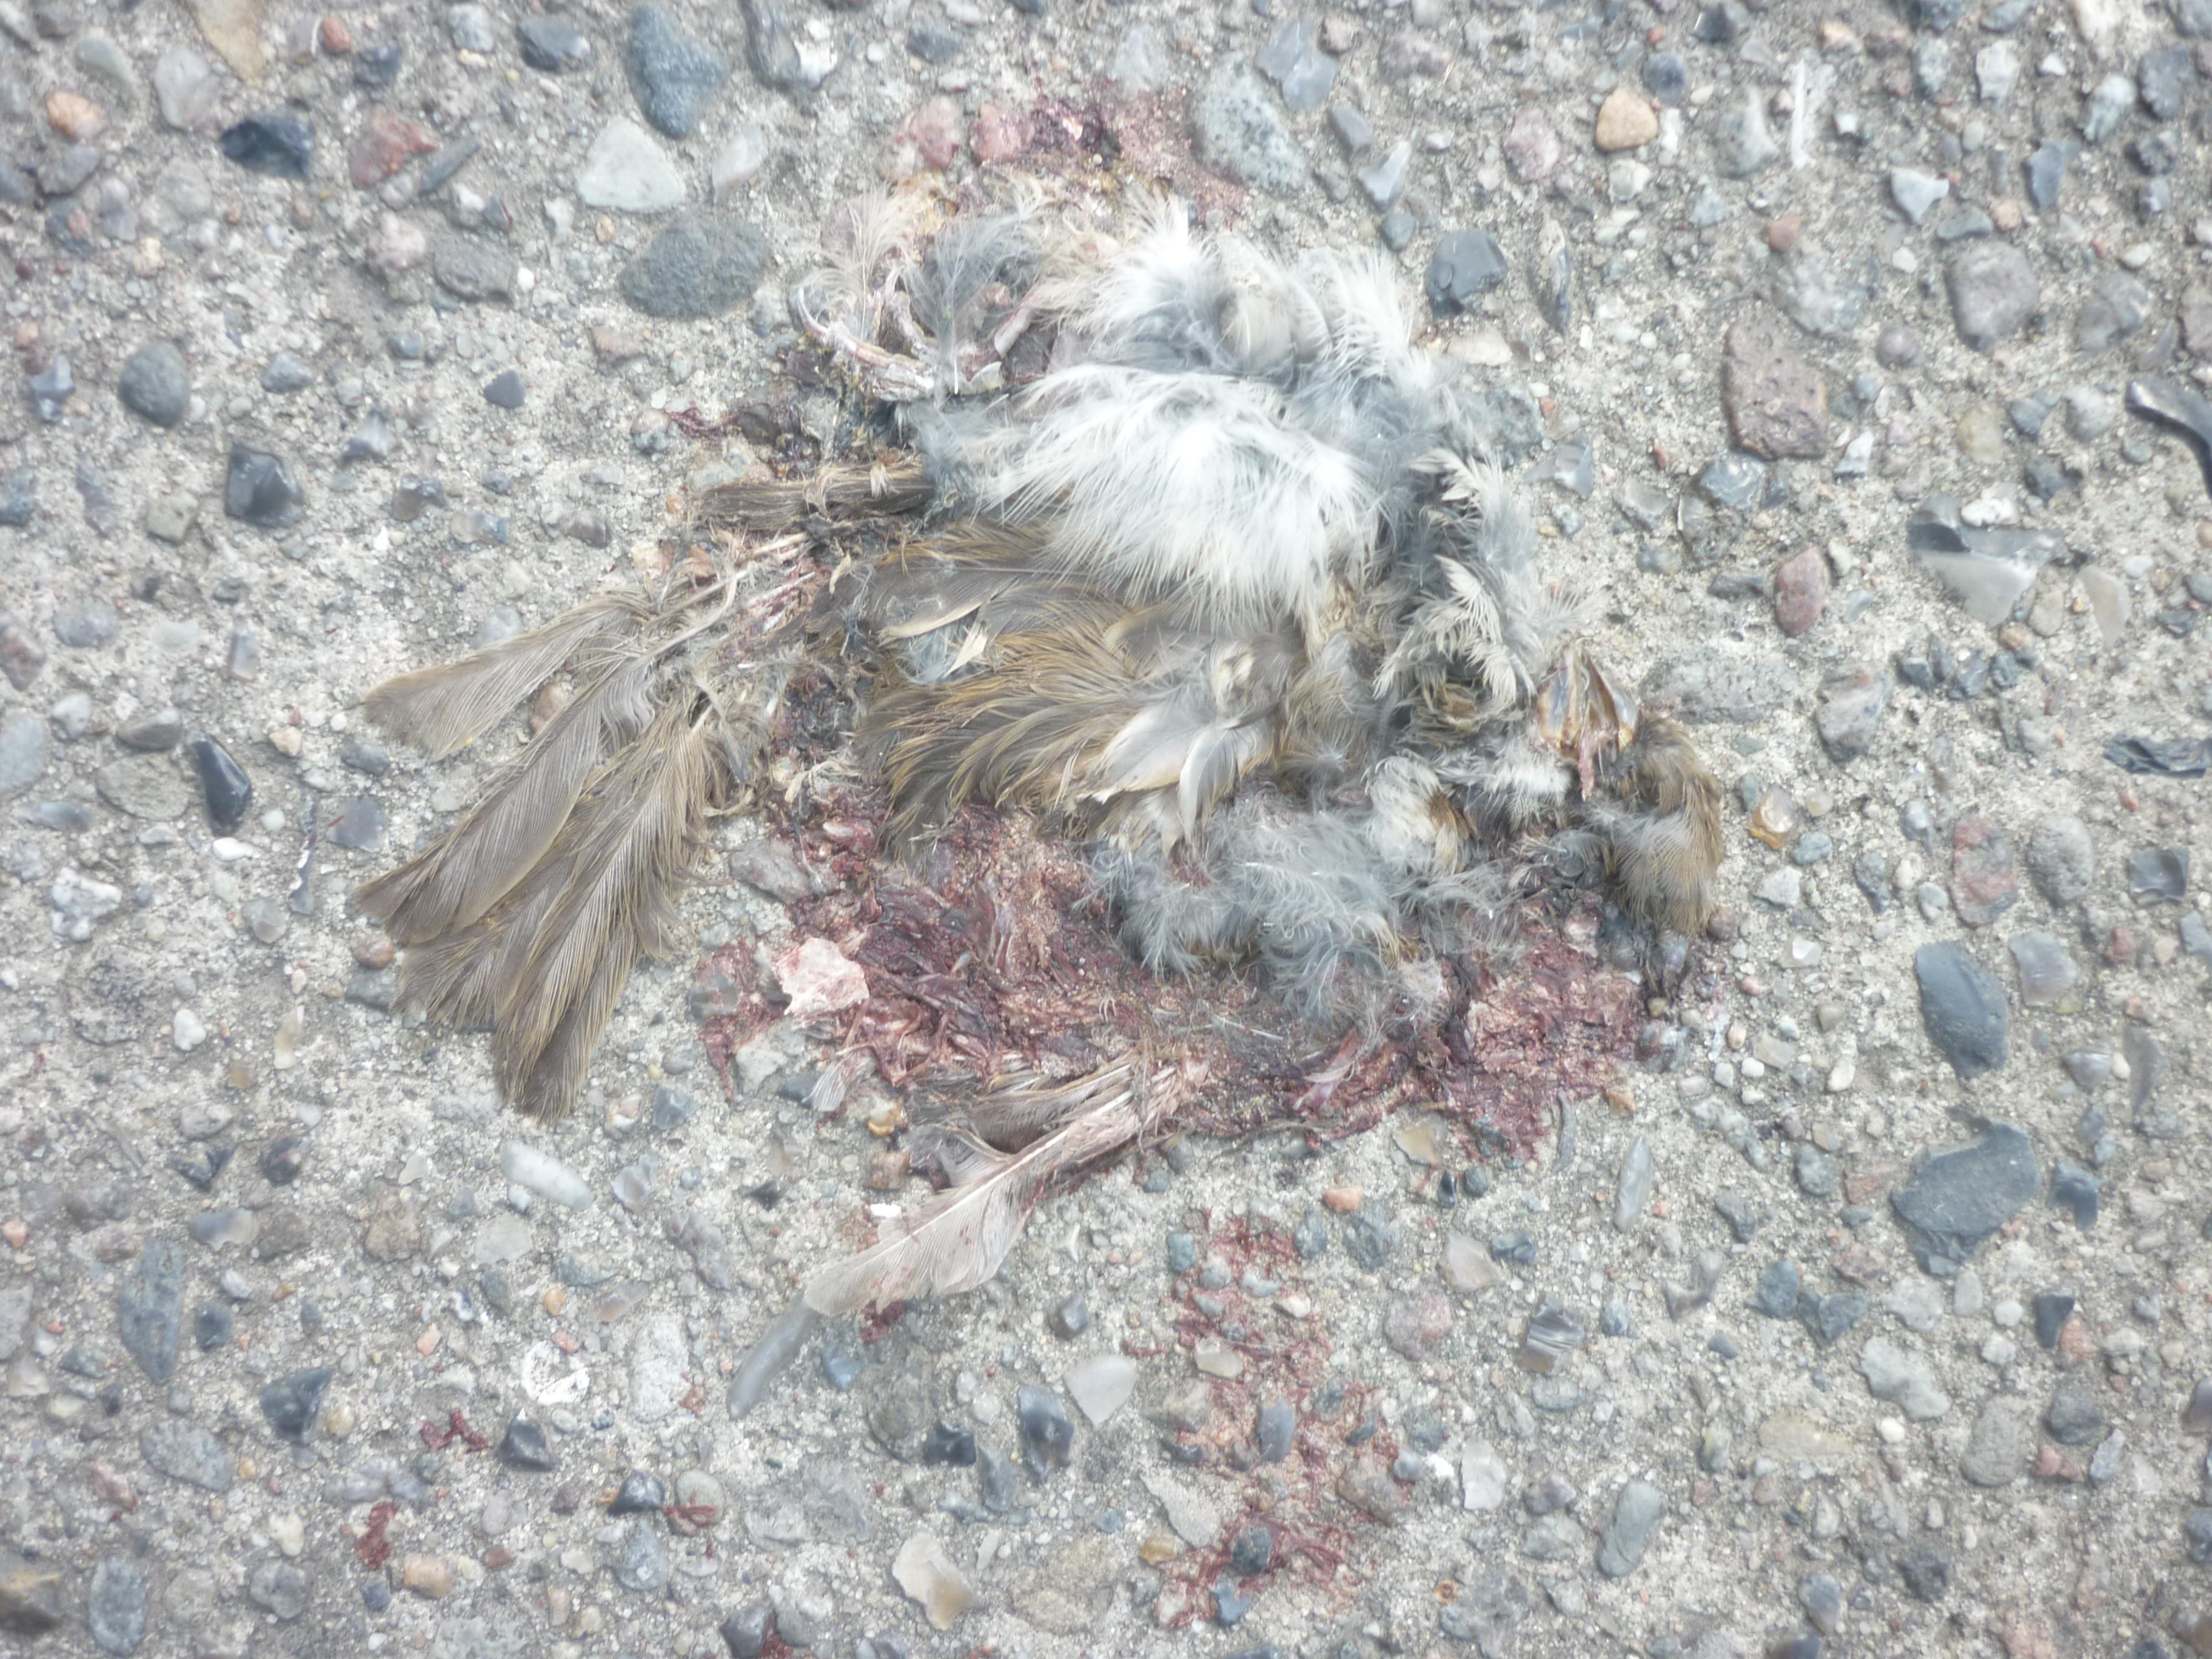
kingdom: Animalia
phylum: Chordata
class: Aves
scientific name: Aves
